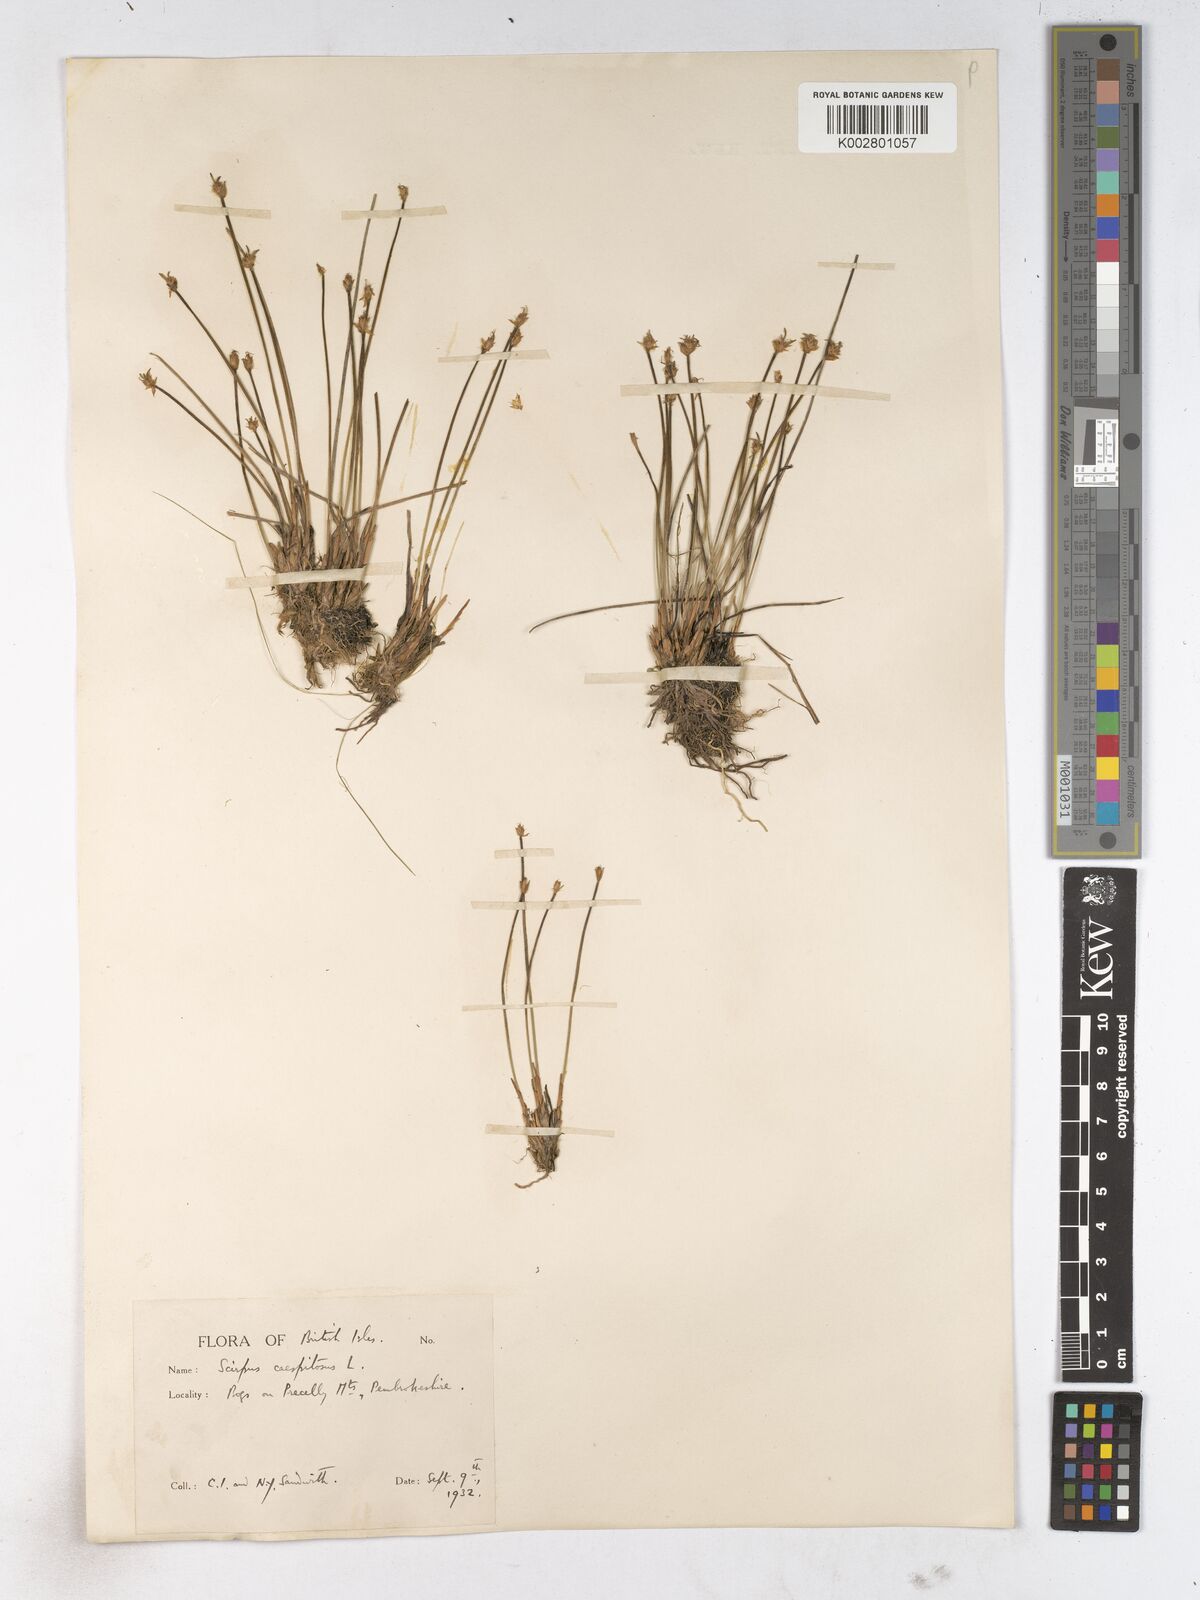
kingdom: Plantae
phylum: Tracheophyta
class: Liliopsida
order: Poales
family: Cyperaceae
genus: Trichophorum
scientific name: Trichophorum cespitosum
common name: Cespitose bulrush
